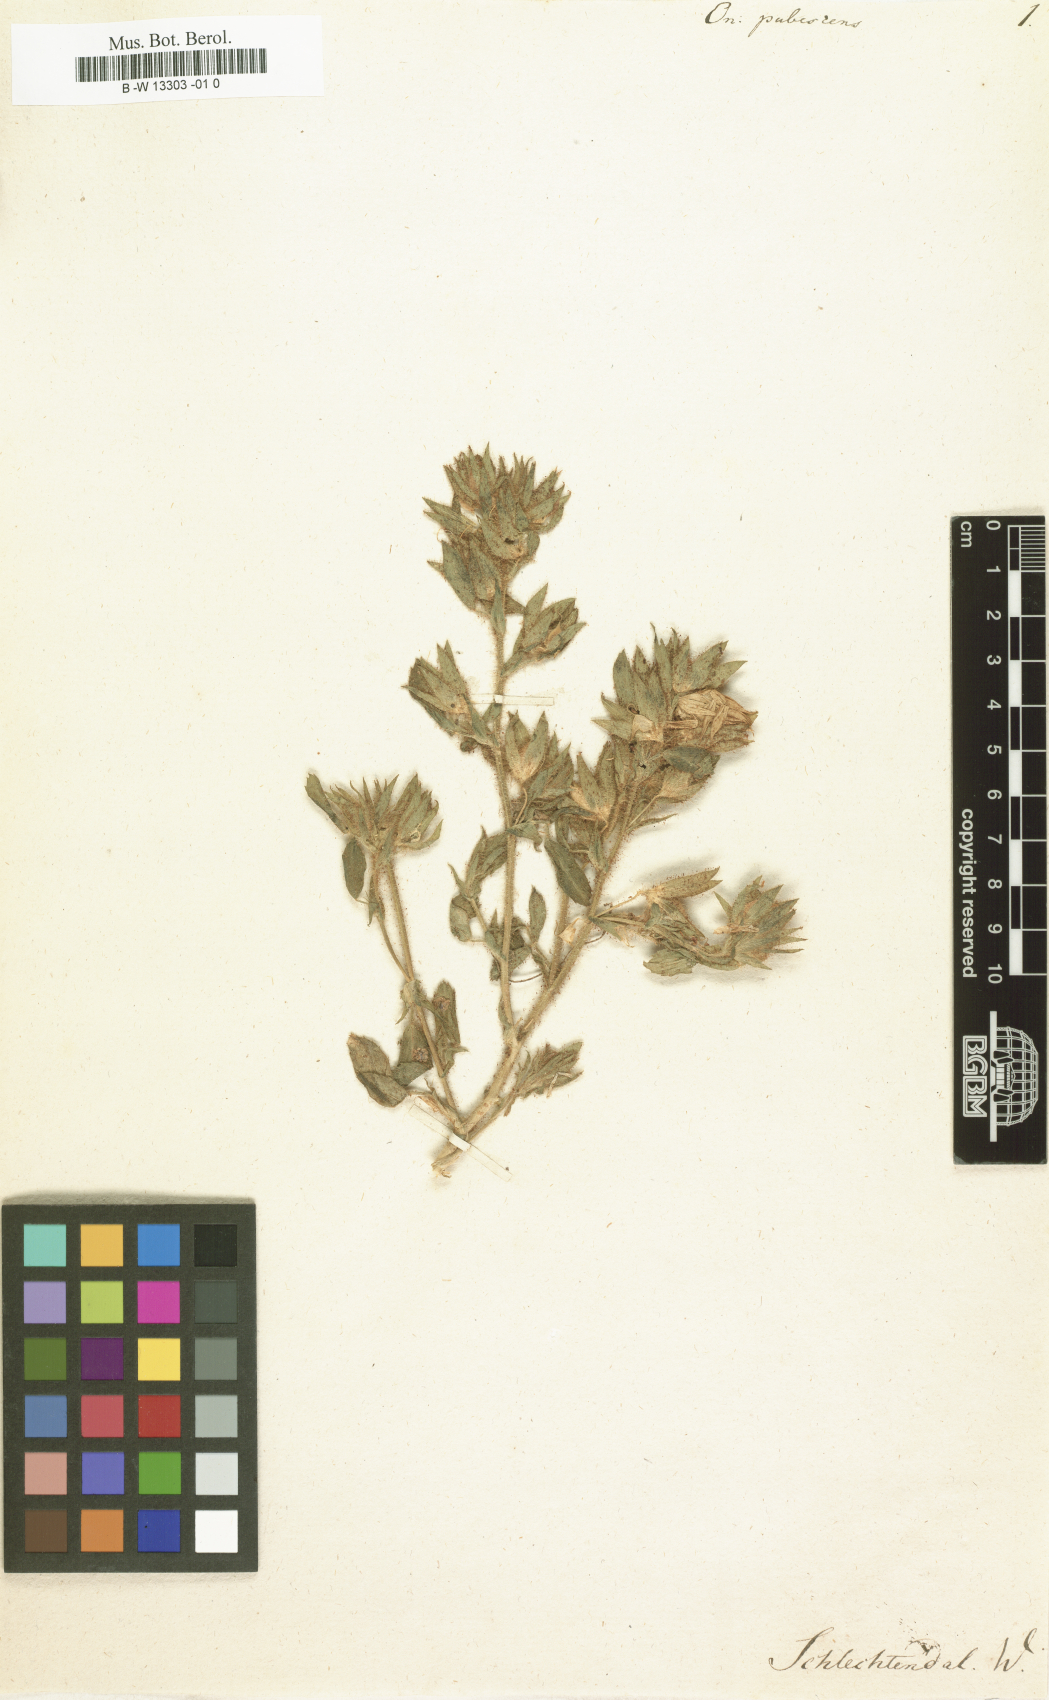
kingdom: Plantae
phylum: Tracheophyta
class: Magnoliopsida
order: Fabales
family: Fabaceae
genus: Ononis
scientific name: Ononis pubescens
